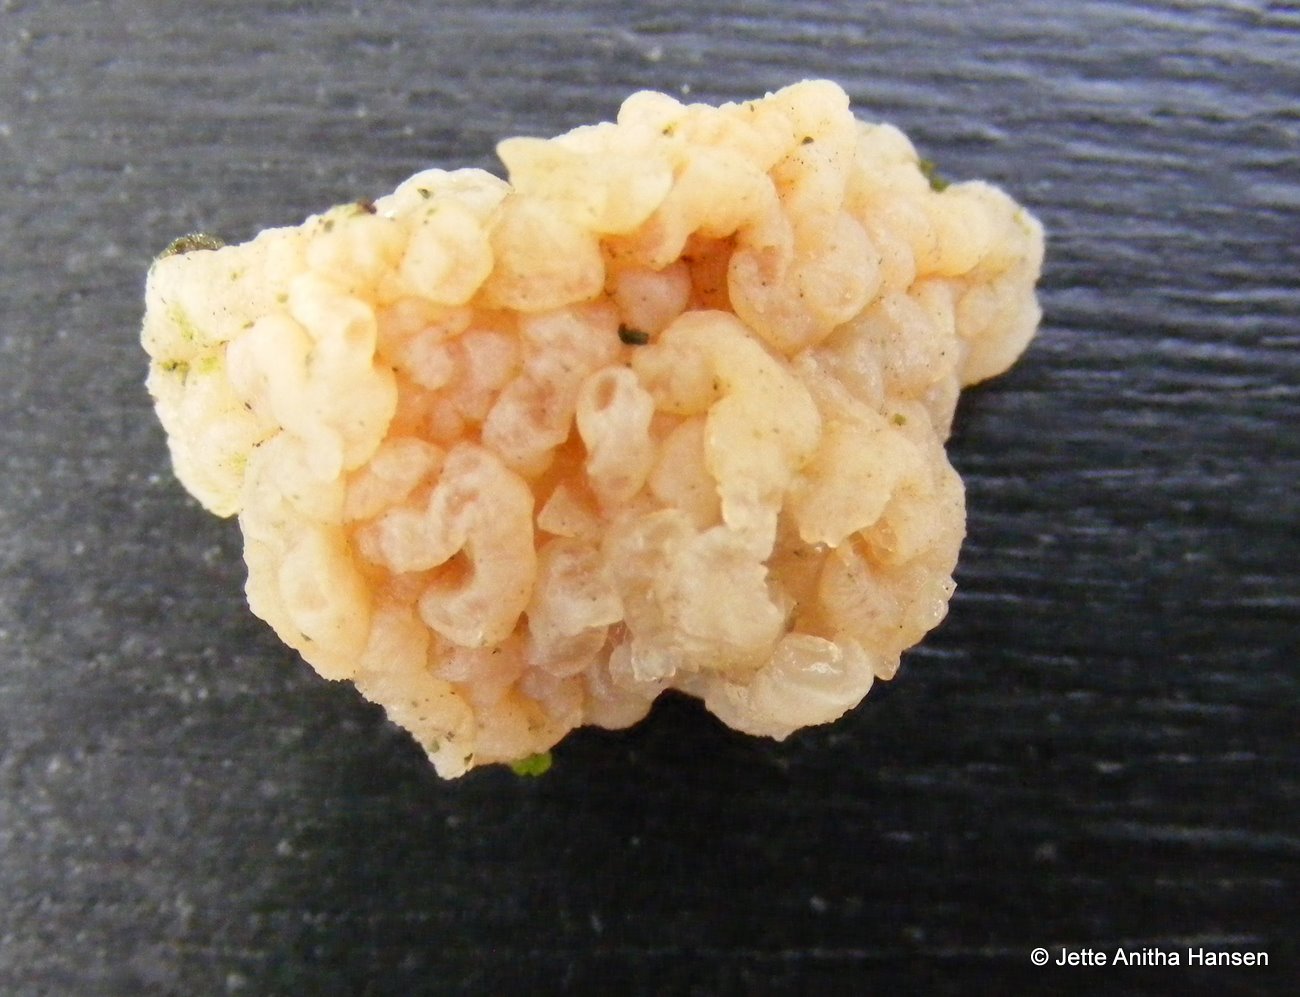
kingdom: Fungi
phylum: Basidiomycota
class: Tremellomycetes
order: Tremellales
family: Naemateliaceae
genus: Naematelia
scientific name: Naematelia encephala
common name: fyrre-bævresvamp
